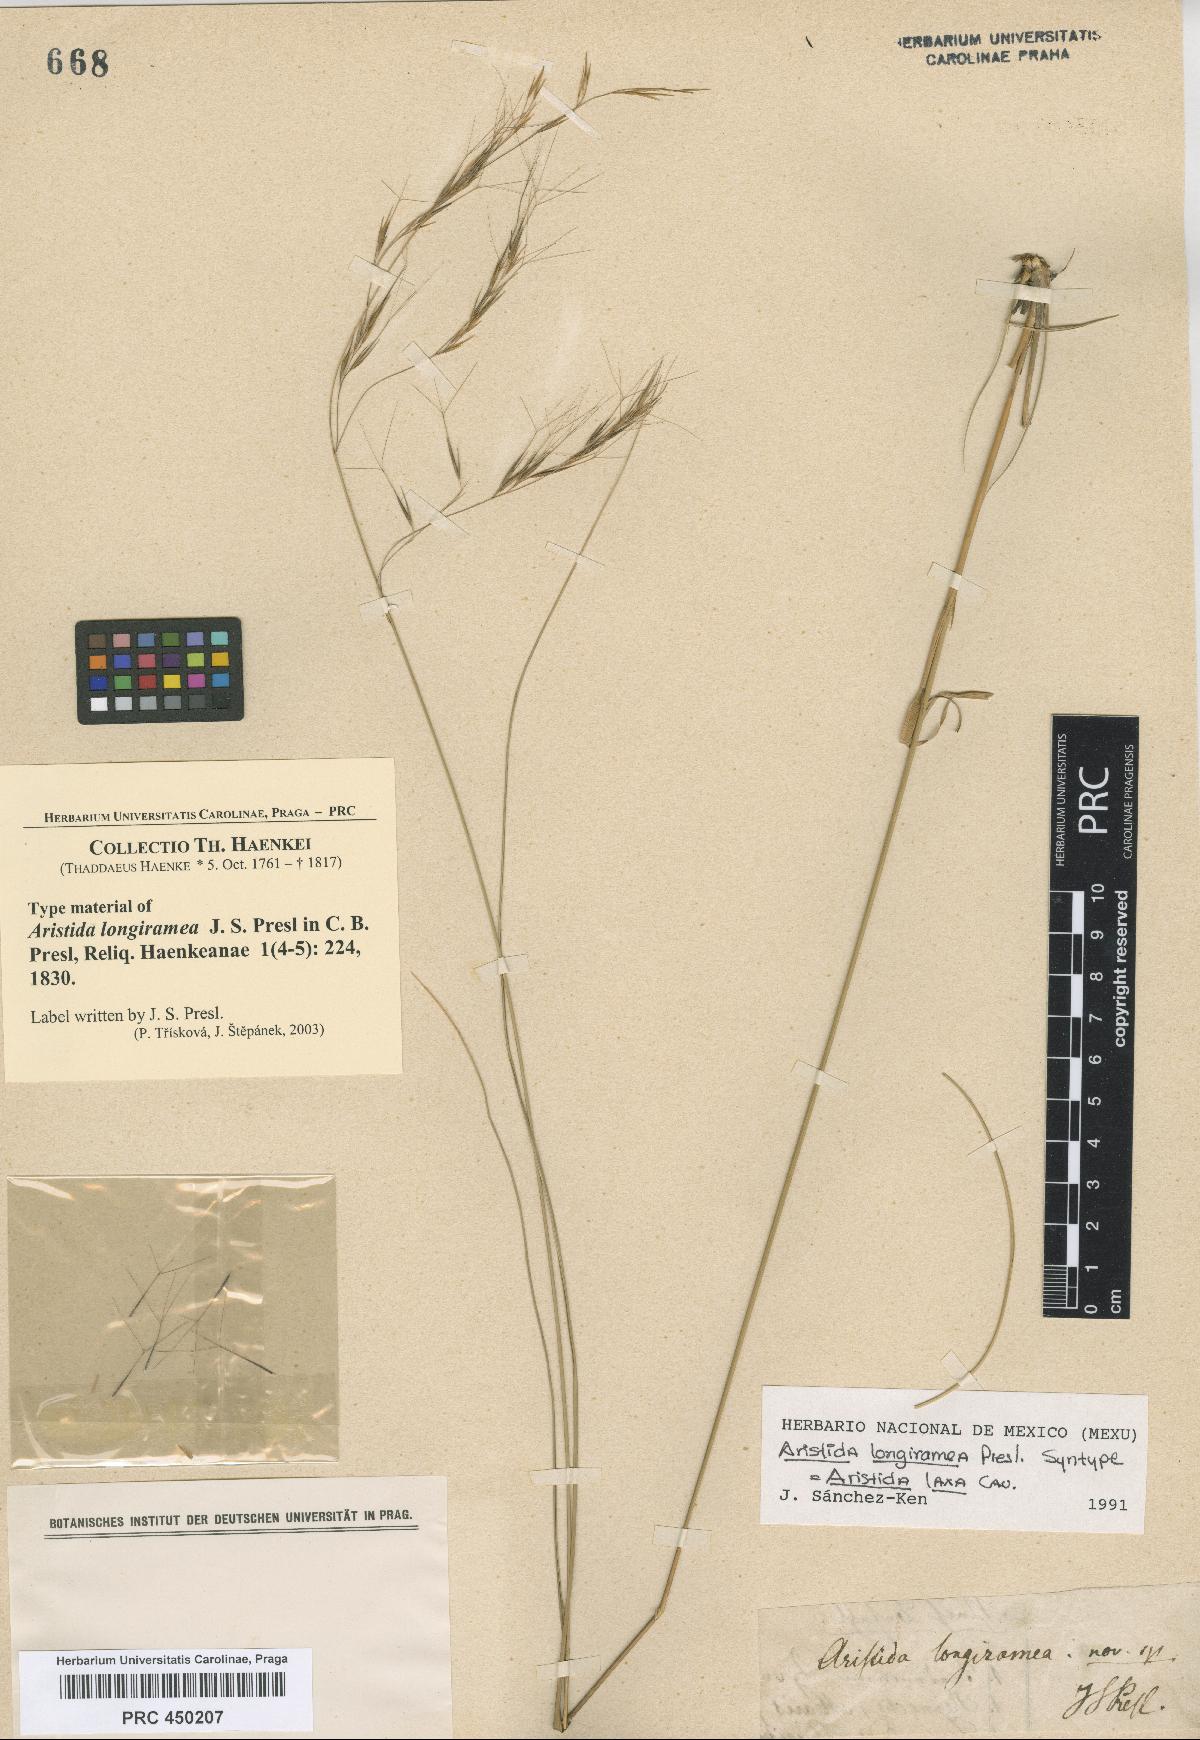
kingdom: Plantae
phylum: Tracheophyta
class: Liliopsida
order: Poales
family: Poaceae
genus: Aristida
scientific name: Aristida laxa
